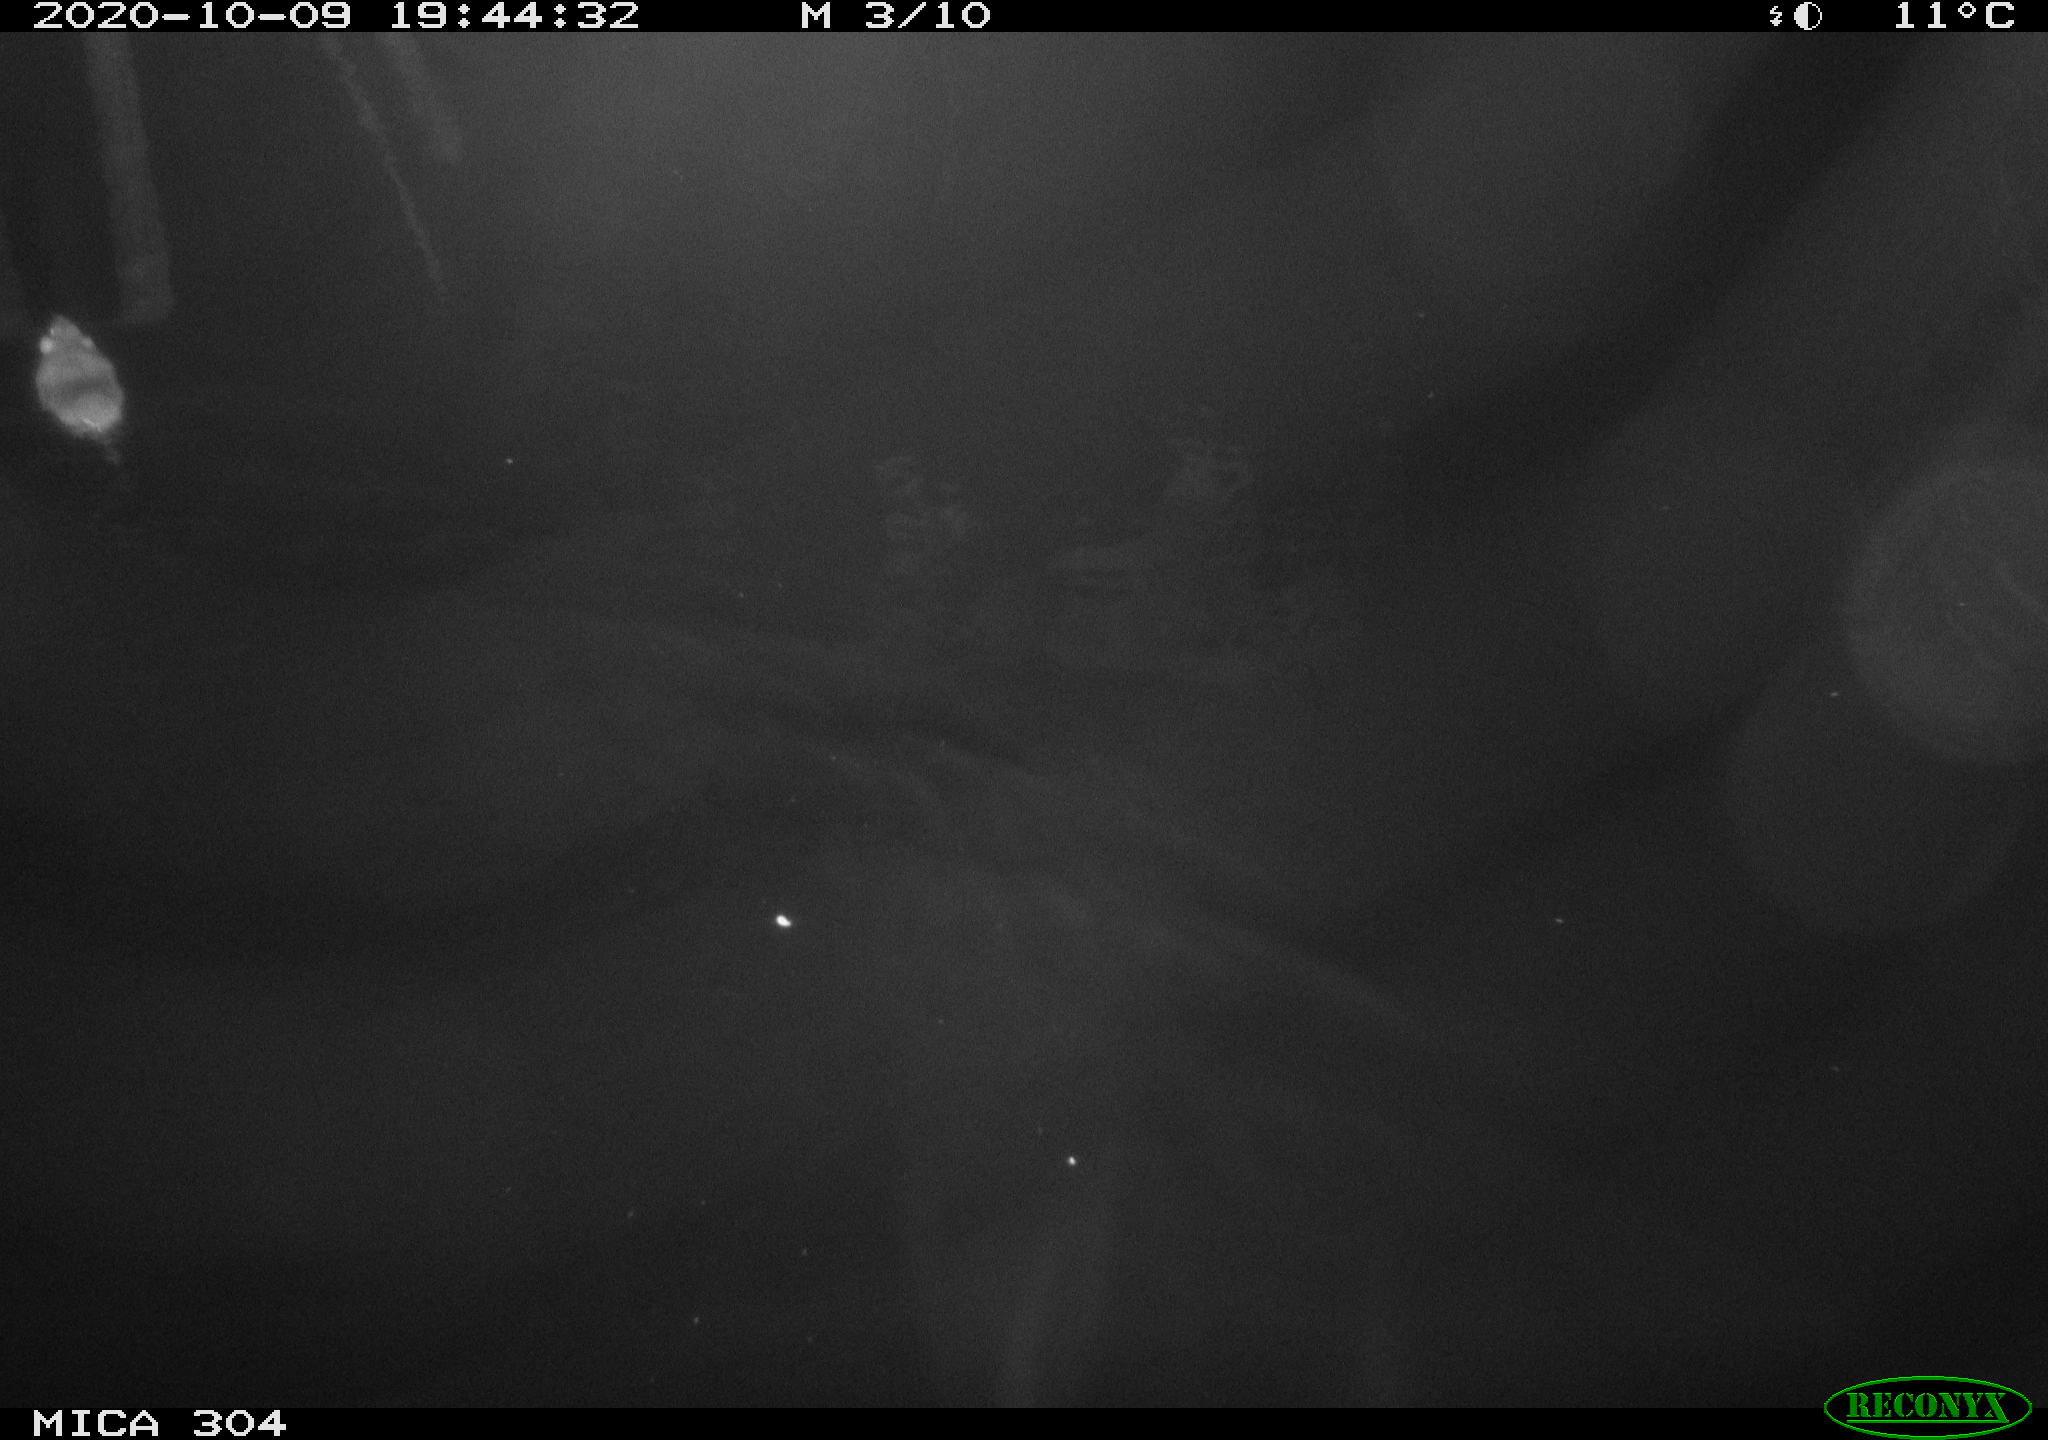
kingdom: Animalia
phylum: Chordata
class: Mammalia
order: Rodentia
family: Cricetidae
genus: Ondatra
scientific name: Ondatra zibethicus
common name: Muskrat
